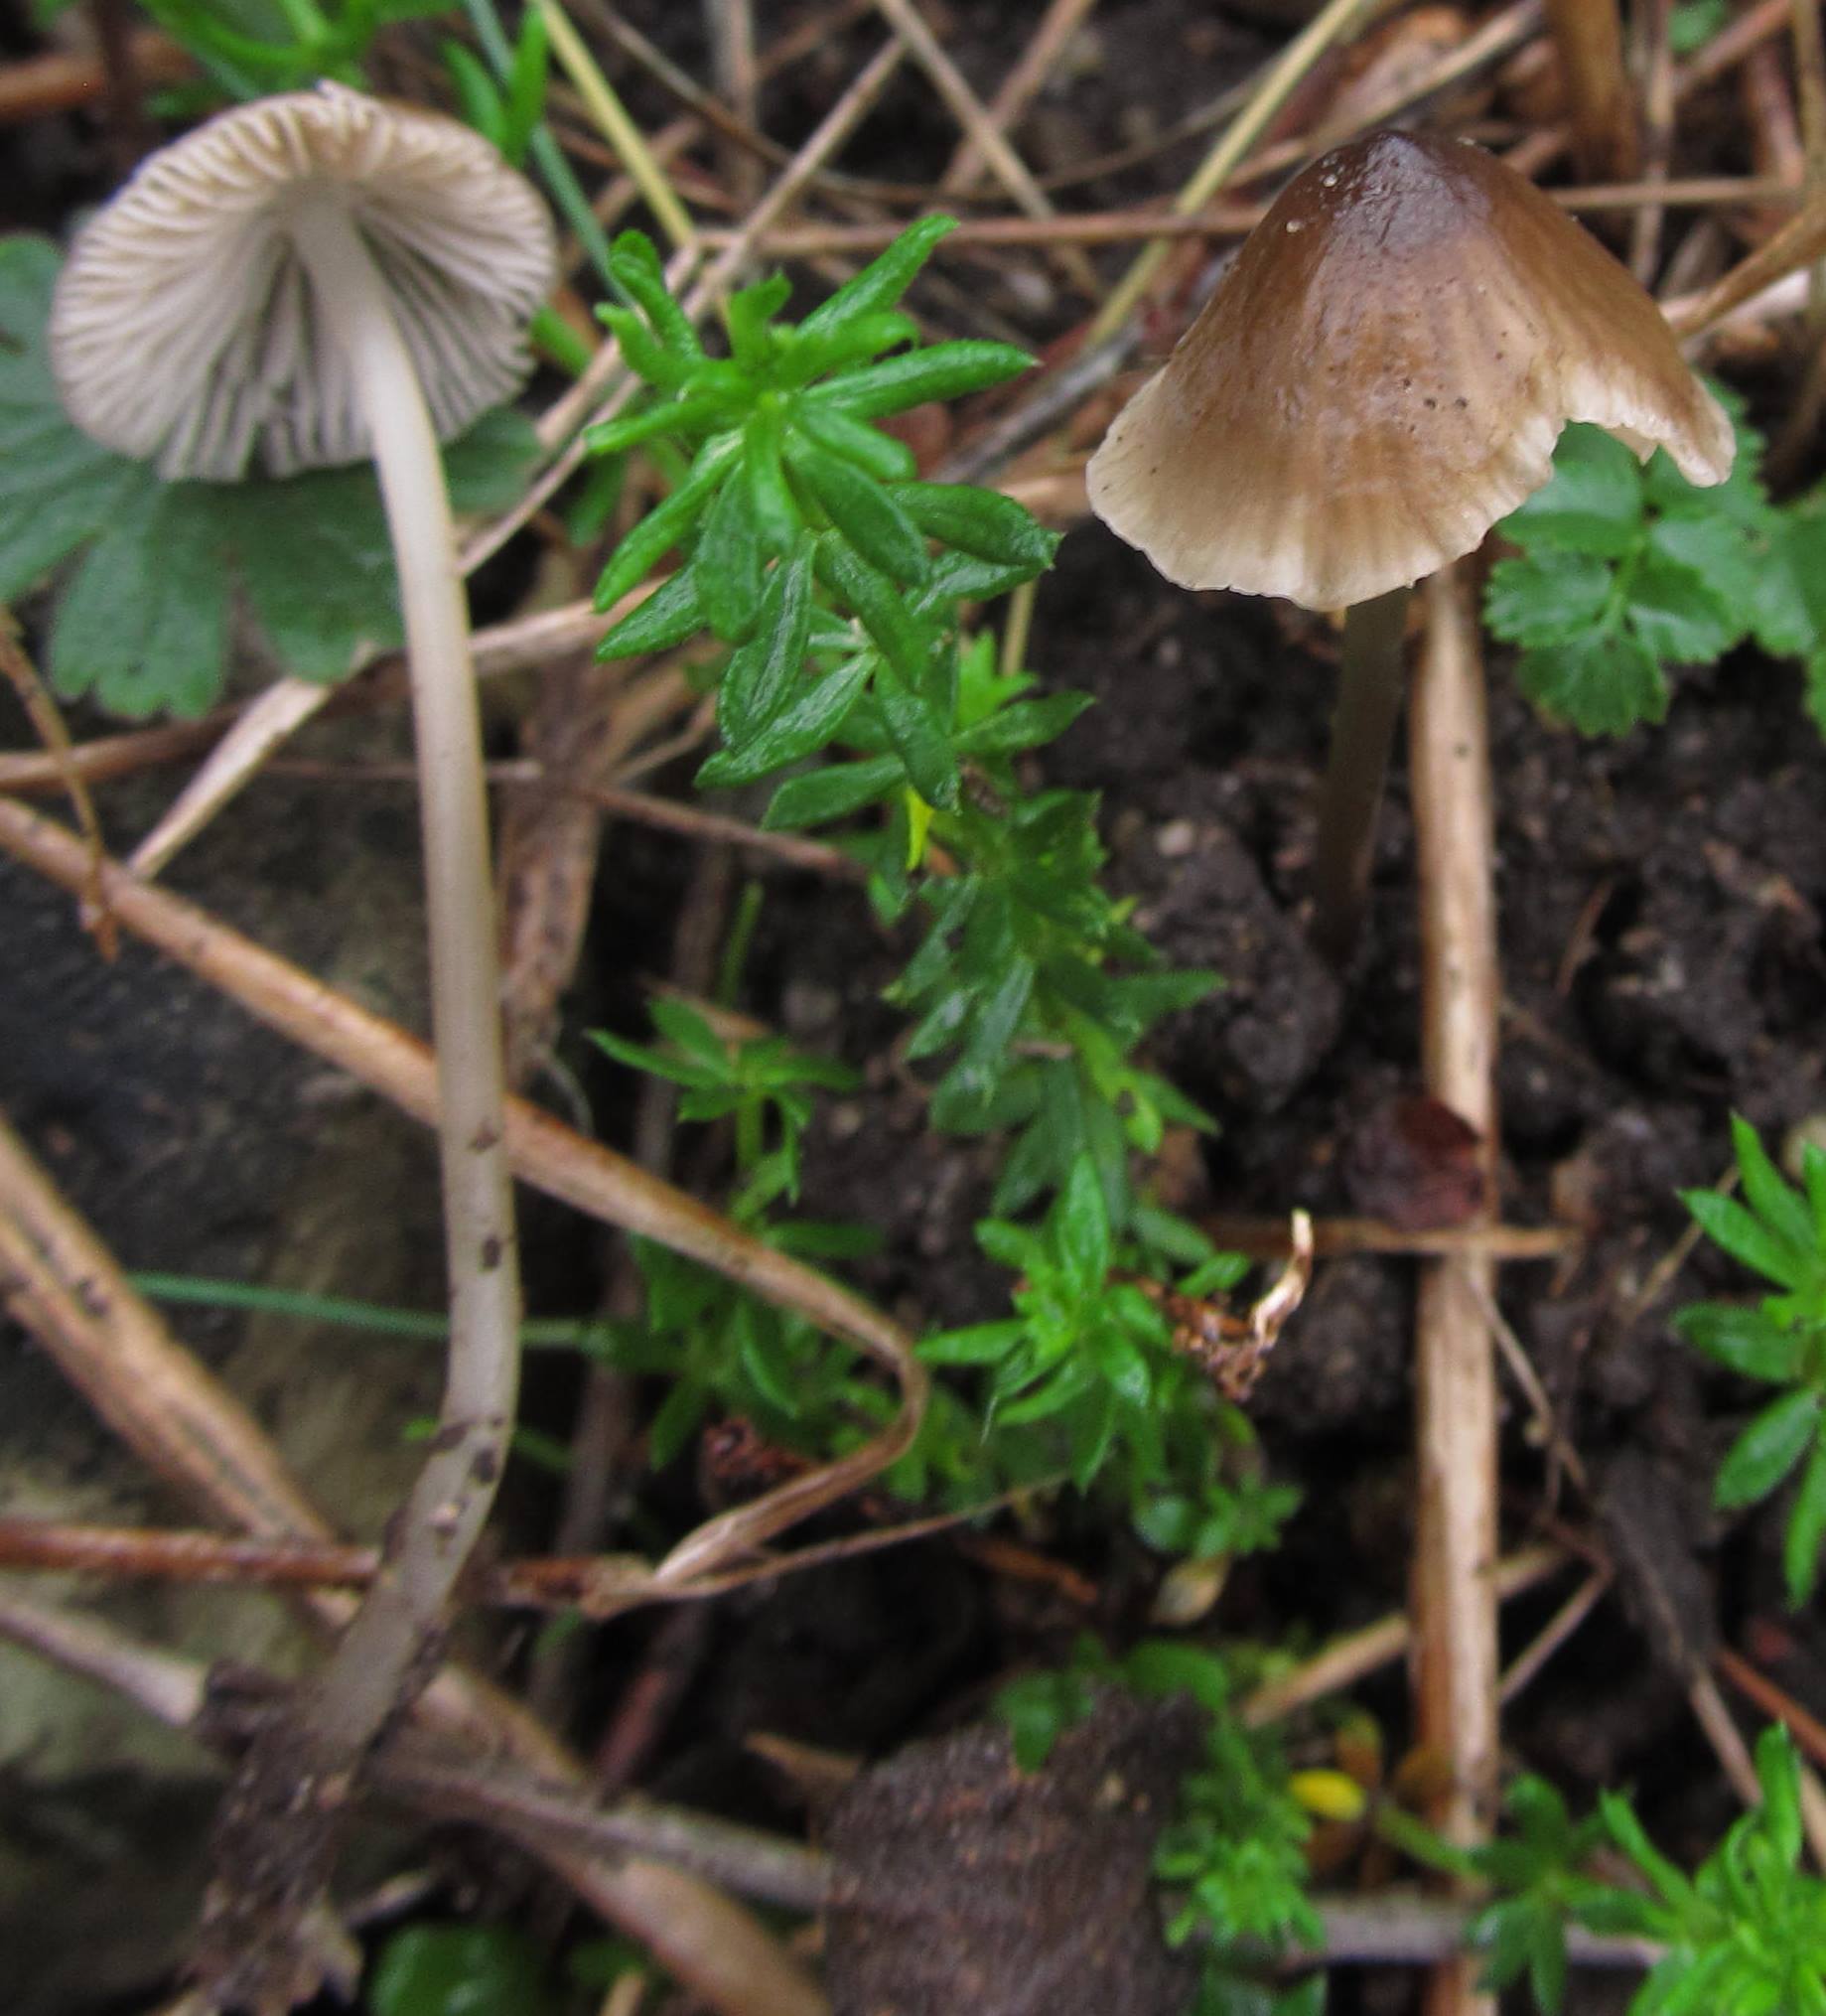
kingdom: Fungi
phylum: Basidiomycota
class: Agaricomycetes
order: Agaricales
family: Porotheleaceae
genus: Phloeomana
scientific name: Phloeomana atropapillata
